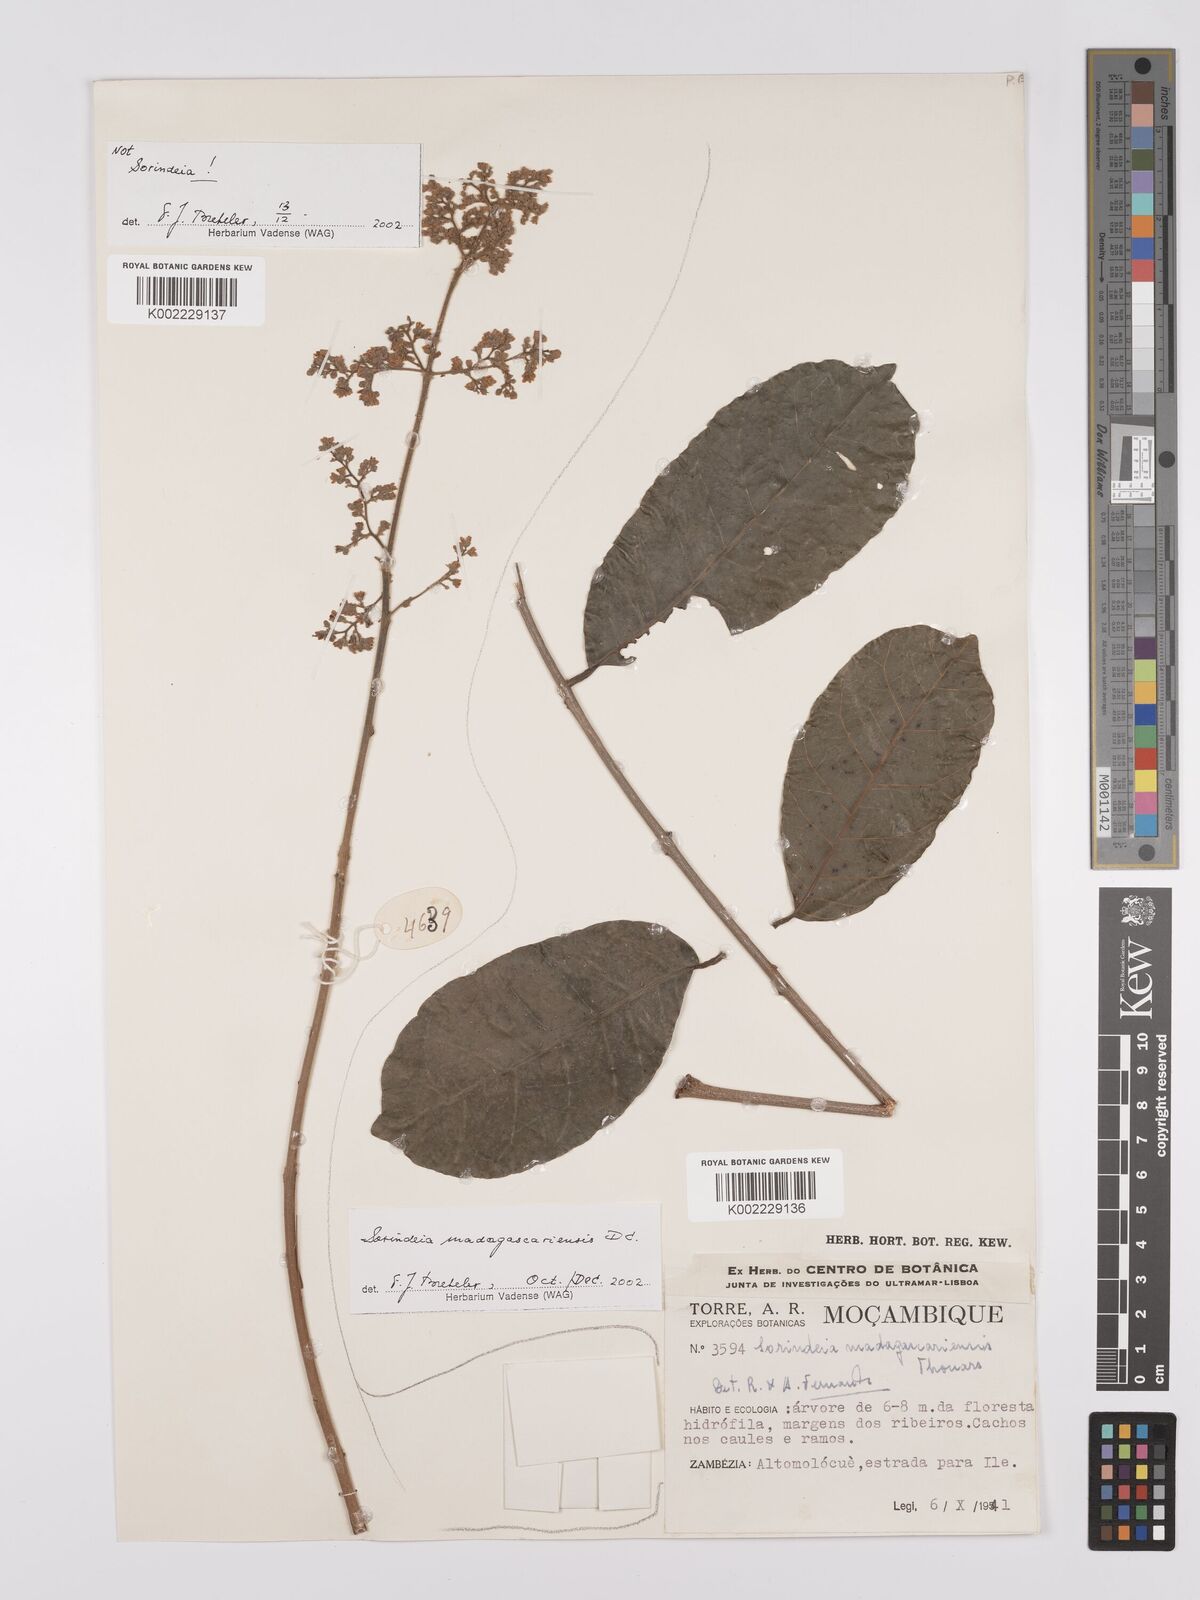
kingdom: Plantae
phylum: Tracheophyta
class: Magnoliopsida
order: Sapindales
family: Anacardiaceae
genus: Sorindeia
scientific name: Sorindeia madagascariensis
